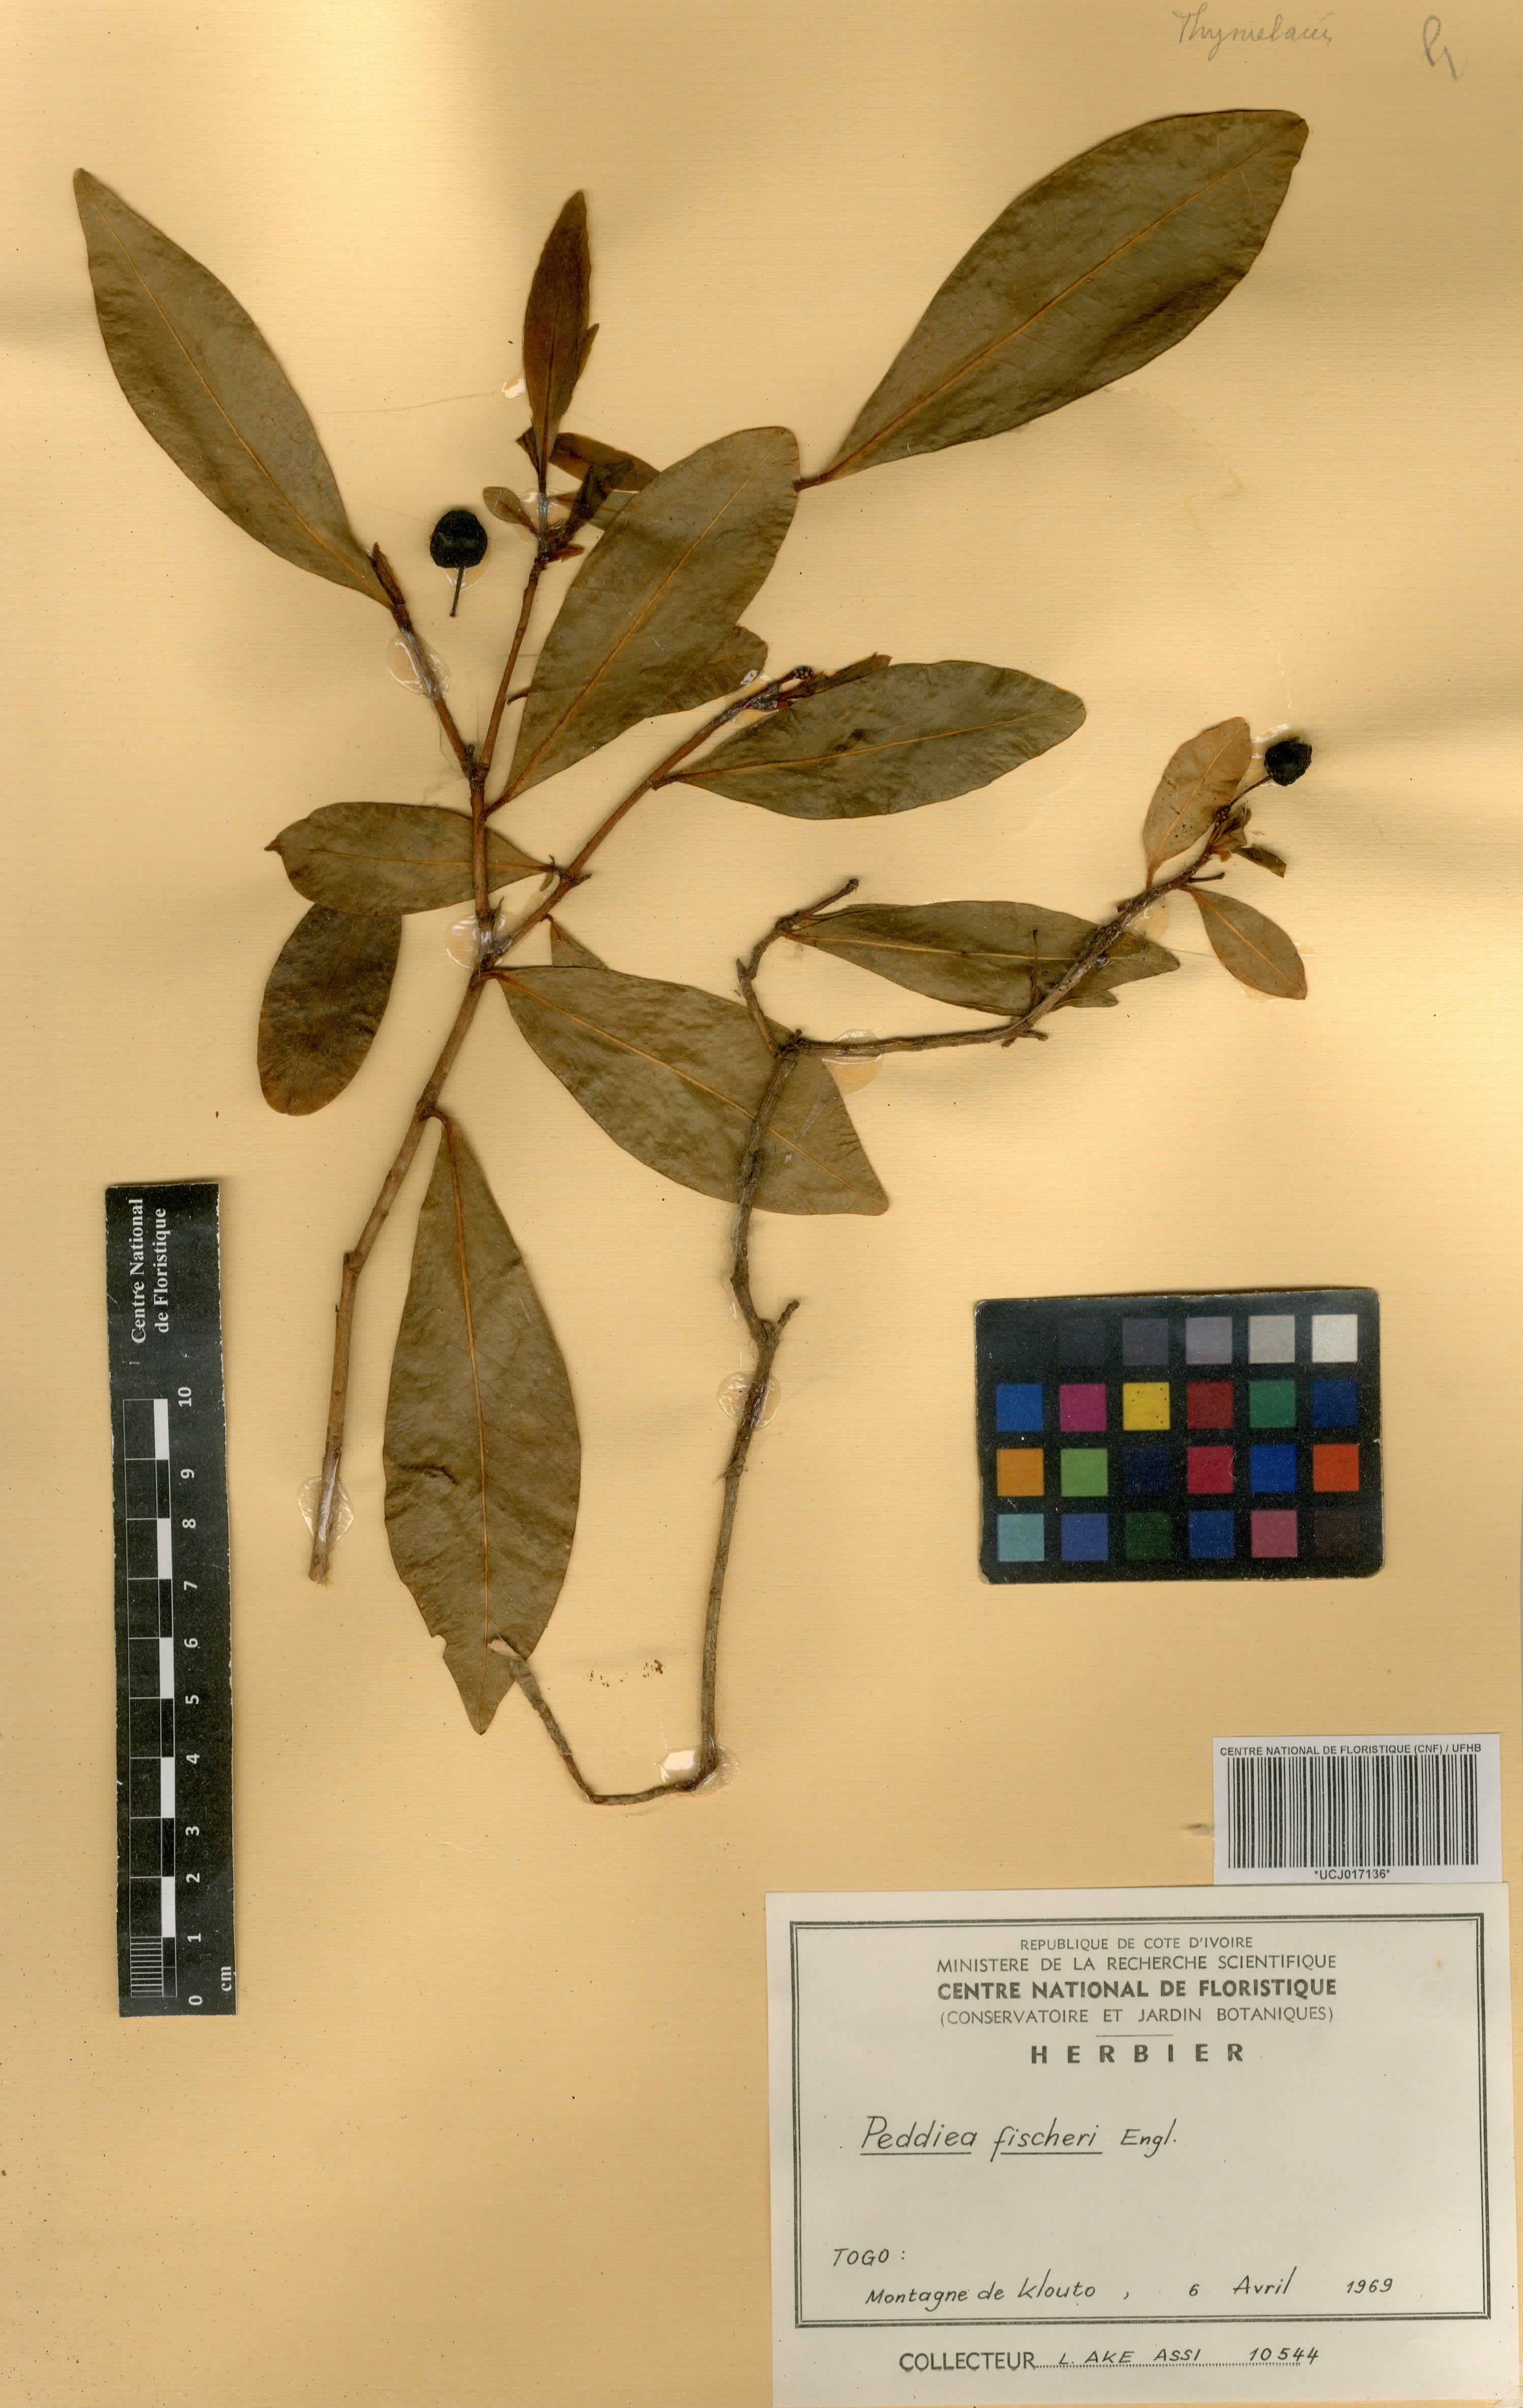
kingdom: Plantae
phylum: Tracheophyta
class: Magnoliopsida
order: Malvales
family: Thymelaeaceae
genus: Peddiea
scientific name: Peddiea fischeri
